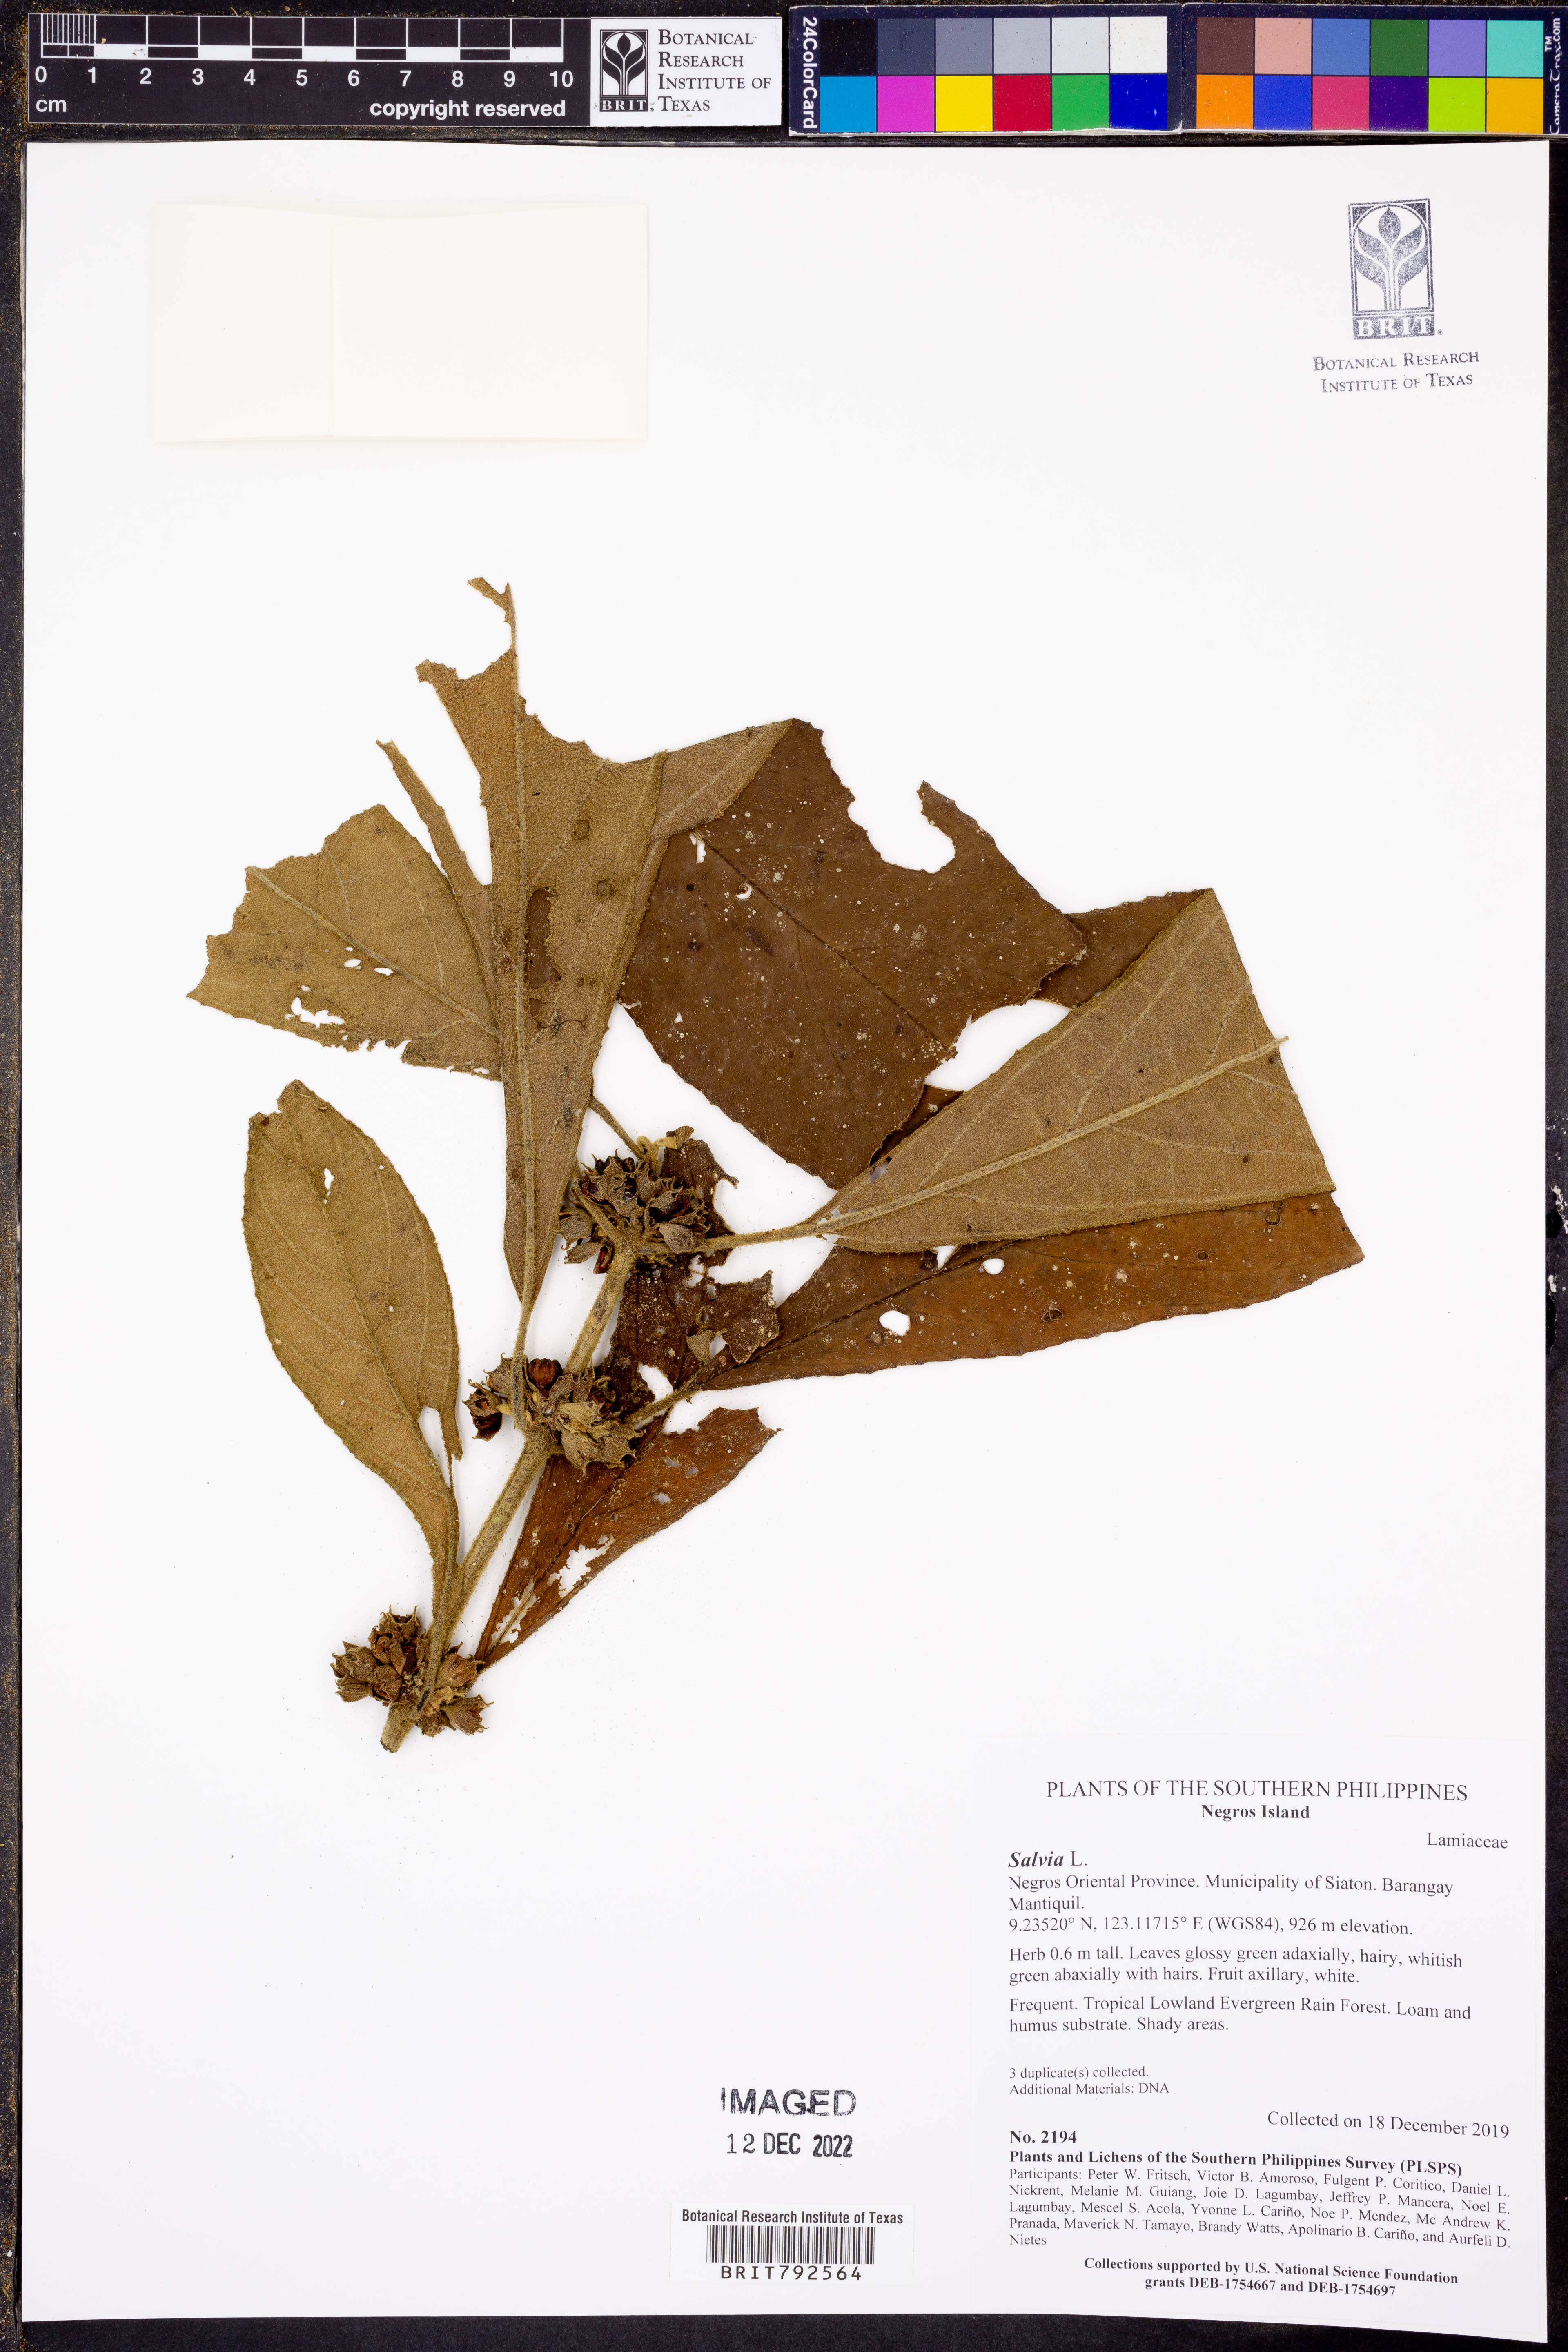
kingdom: Plantae
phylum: Tracheophyta
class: Magnoliopsida
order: Lamiales
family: Lamiaceae
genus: Salvia
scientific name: Salvia
